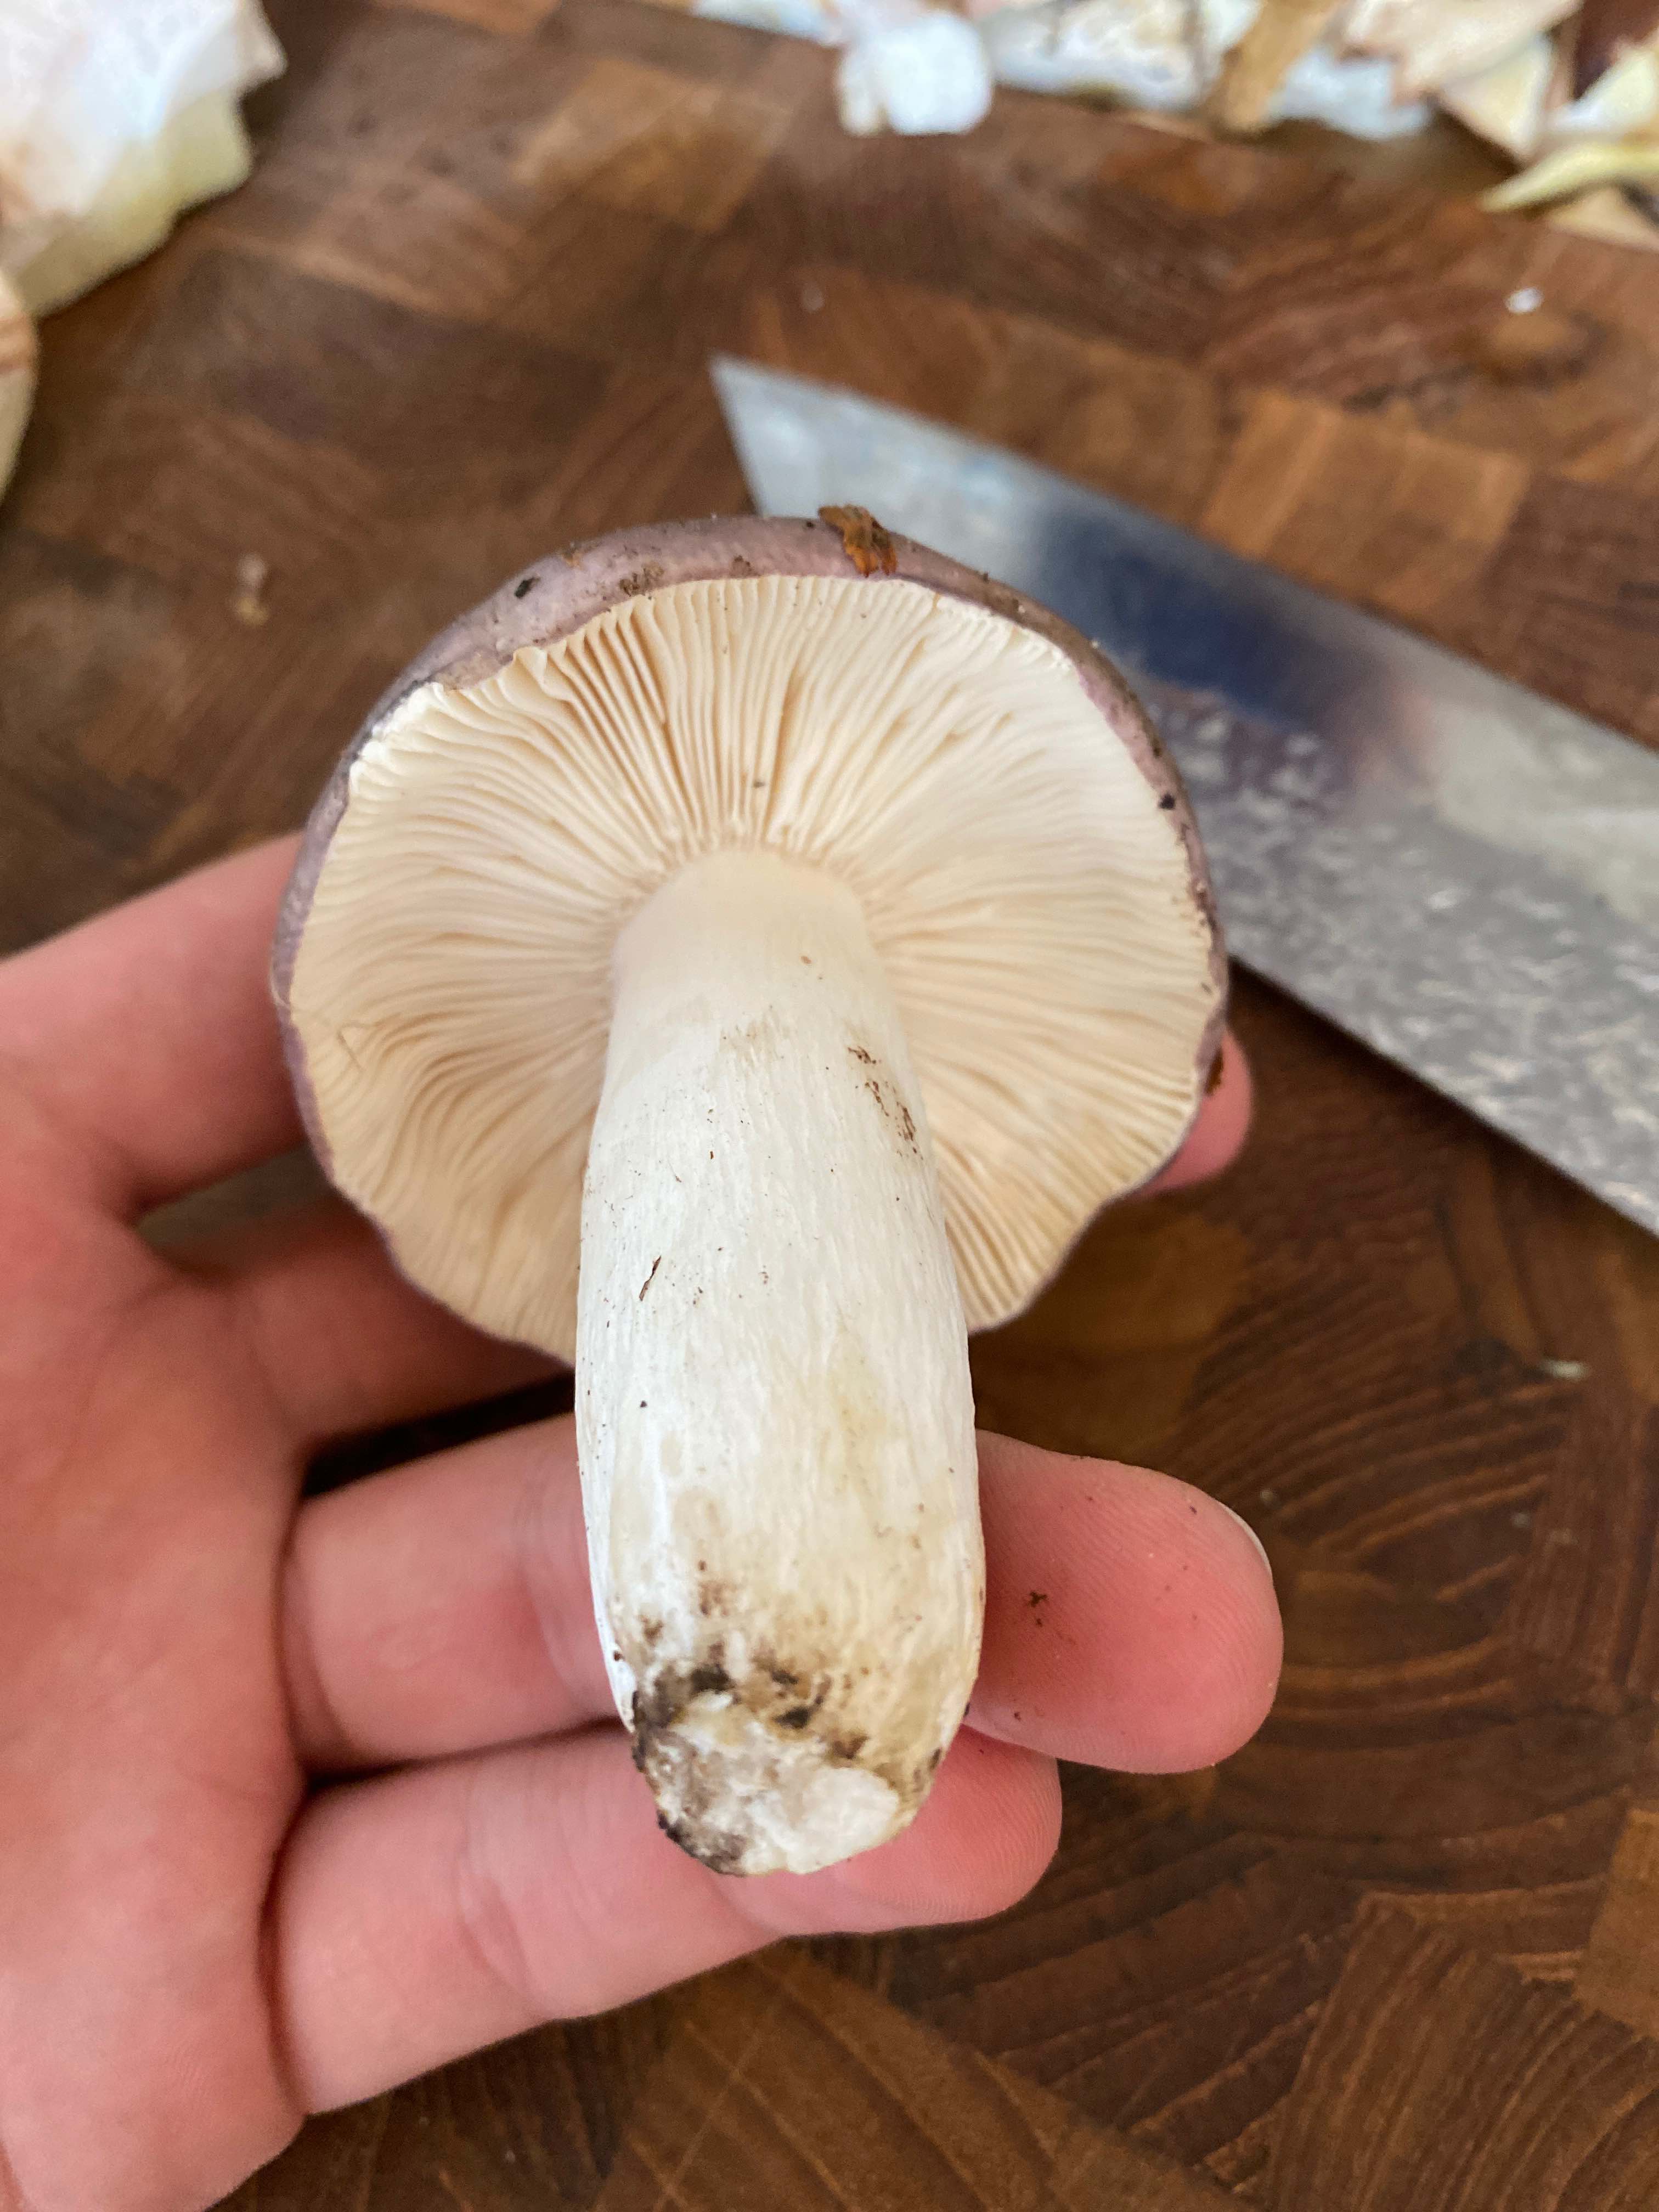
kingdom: Fungi
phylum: Basidiomycota
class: Agaricomycetes
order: Russulales
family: Russulaceae
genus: Russula
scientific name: Russula cyanoxantha
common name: broget skørhat
